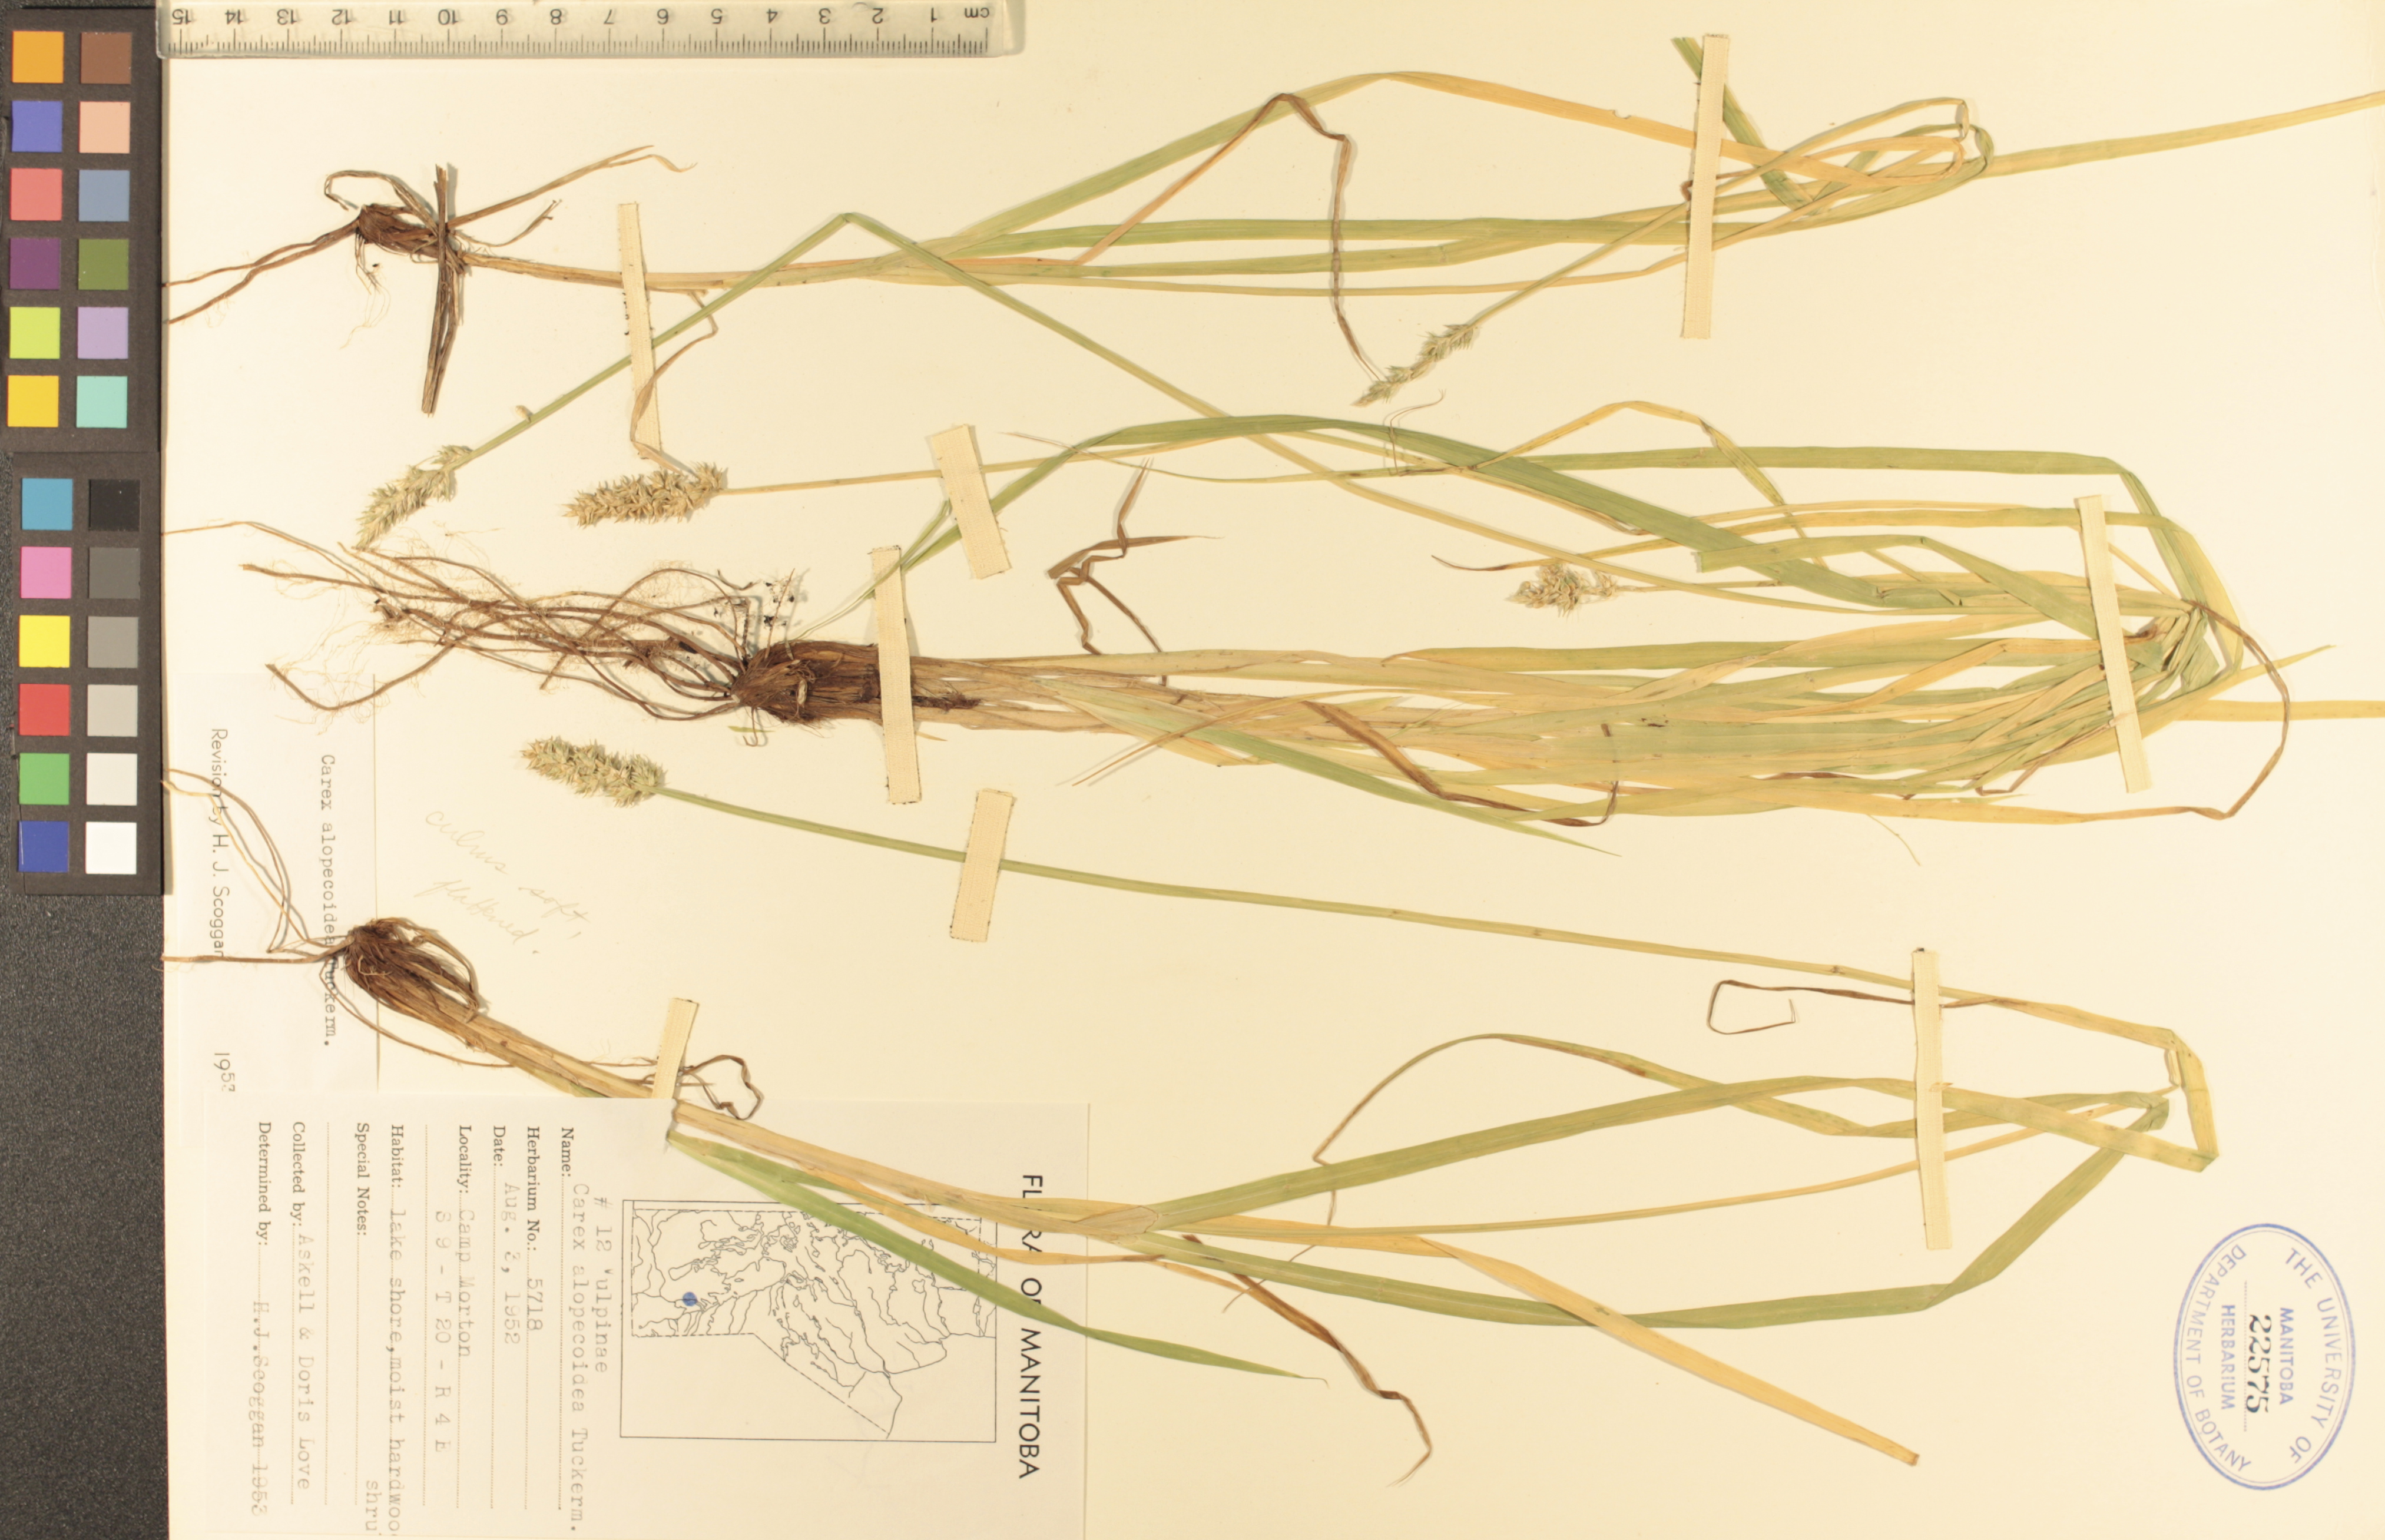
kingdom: Plantae
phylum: Tracheophyta
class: Liliopsida
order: Poales
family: Cyperaceae
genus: Carex
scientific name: Carex alopecoidea
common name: Brown-headed fox sedge
